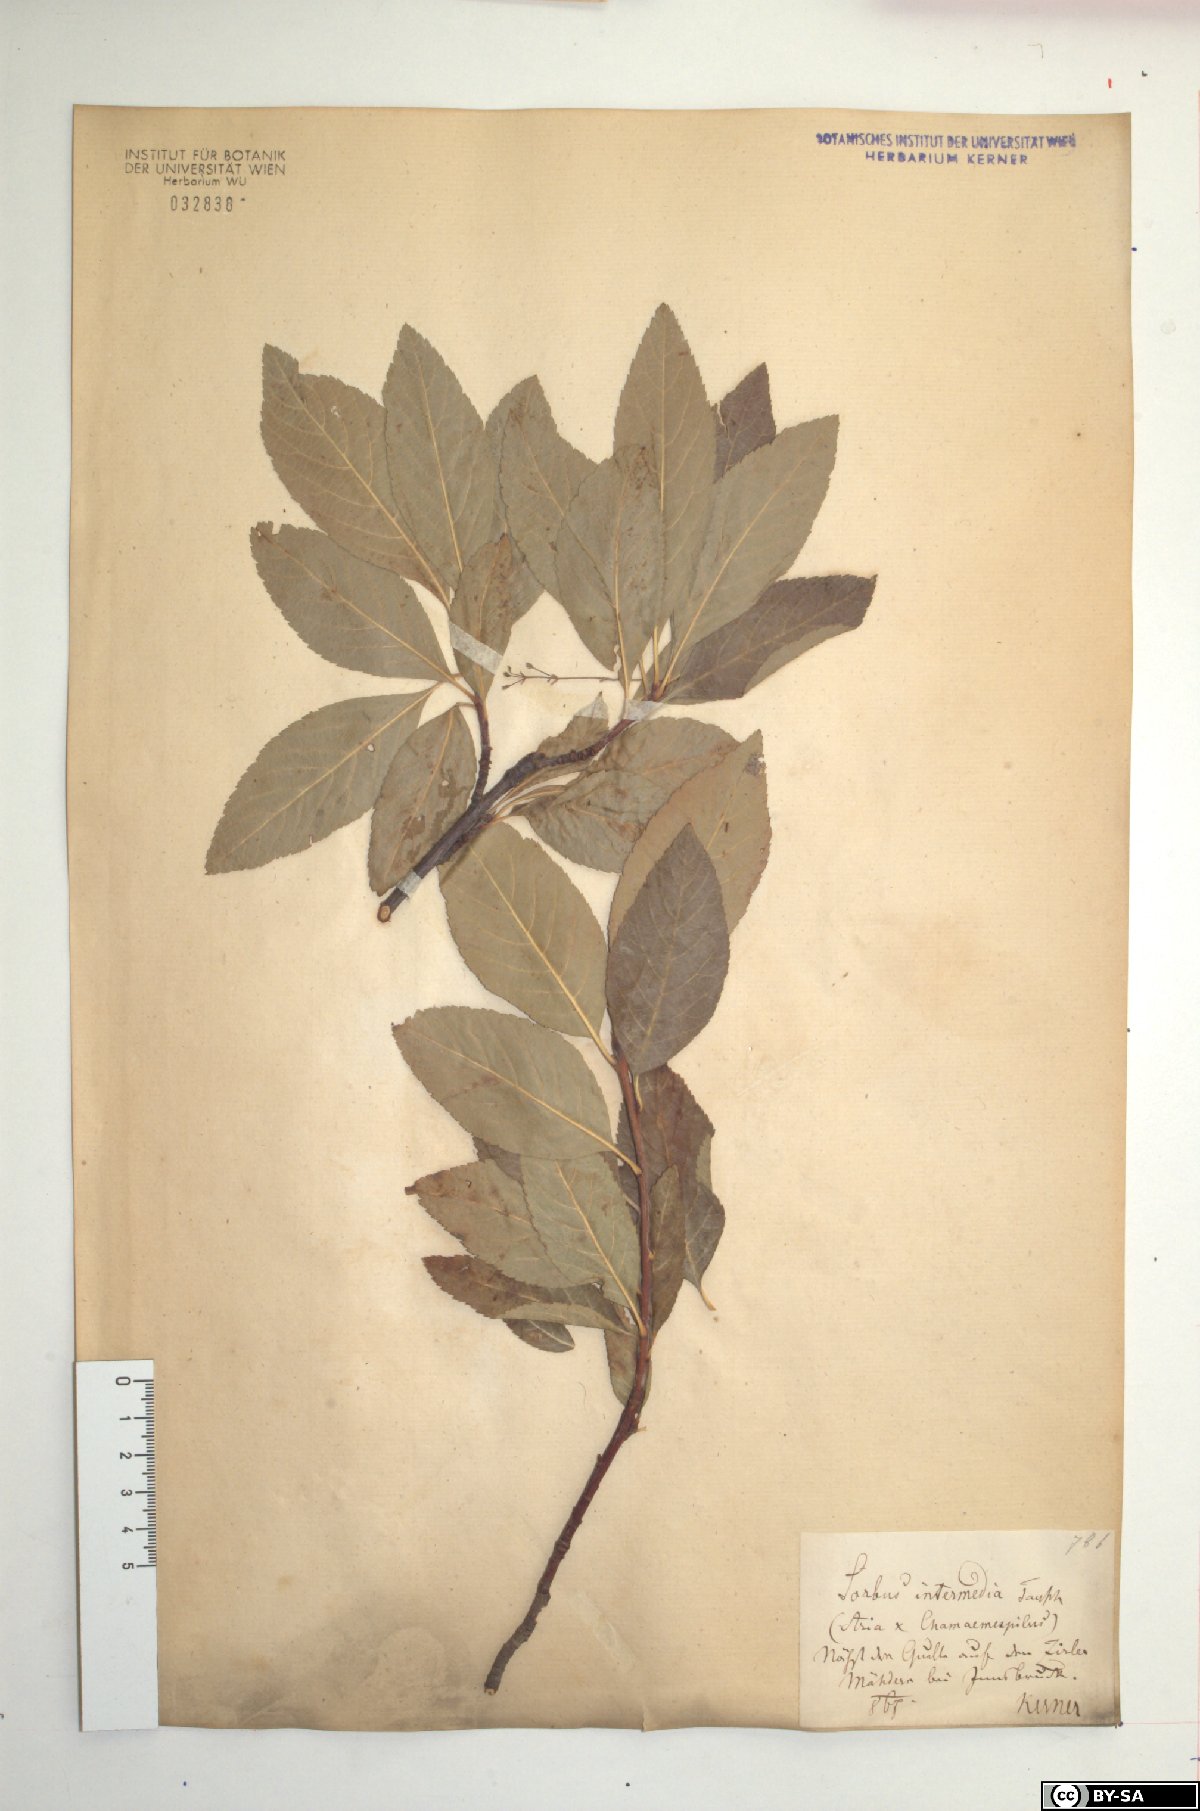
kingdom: Plantae
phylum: Tracheophyta
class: Magnoliopsida
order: Rosales
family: Rosaceae
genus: Majovskya
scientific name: Majovskya sudetica
